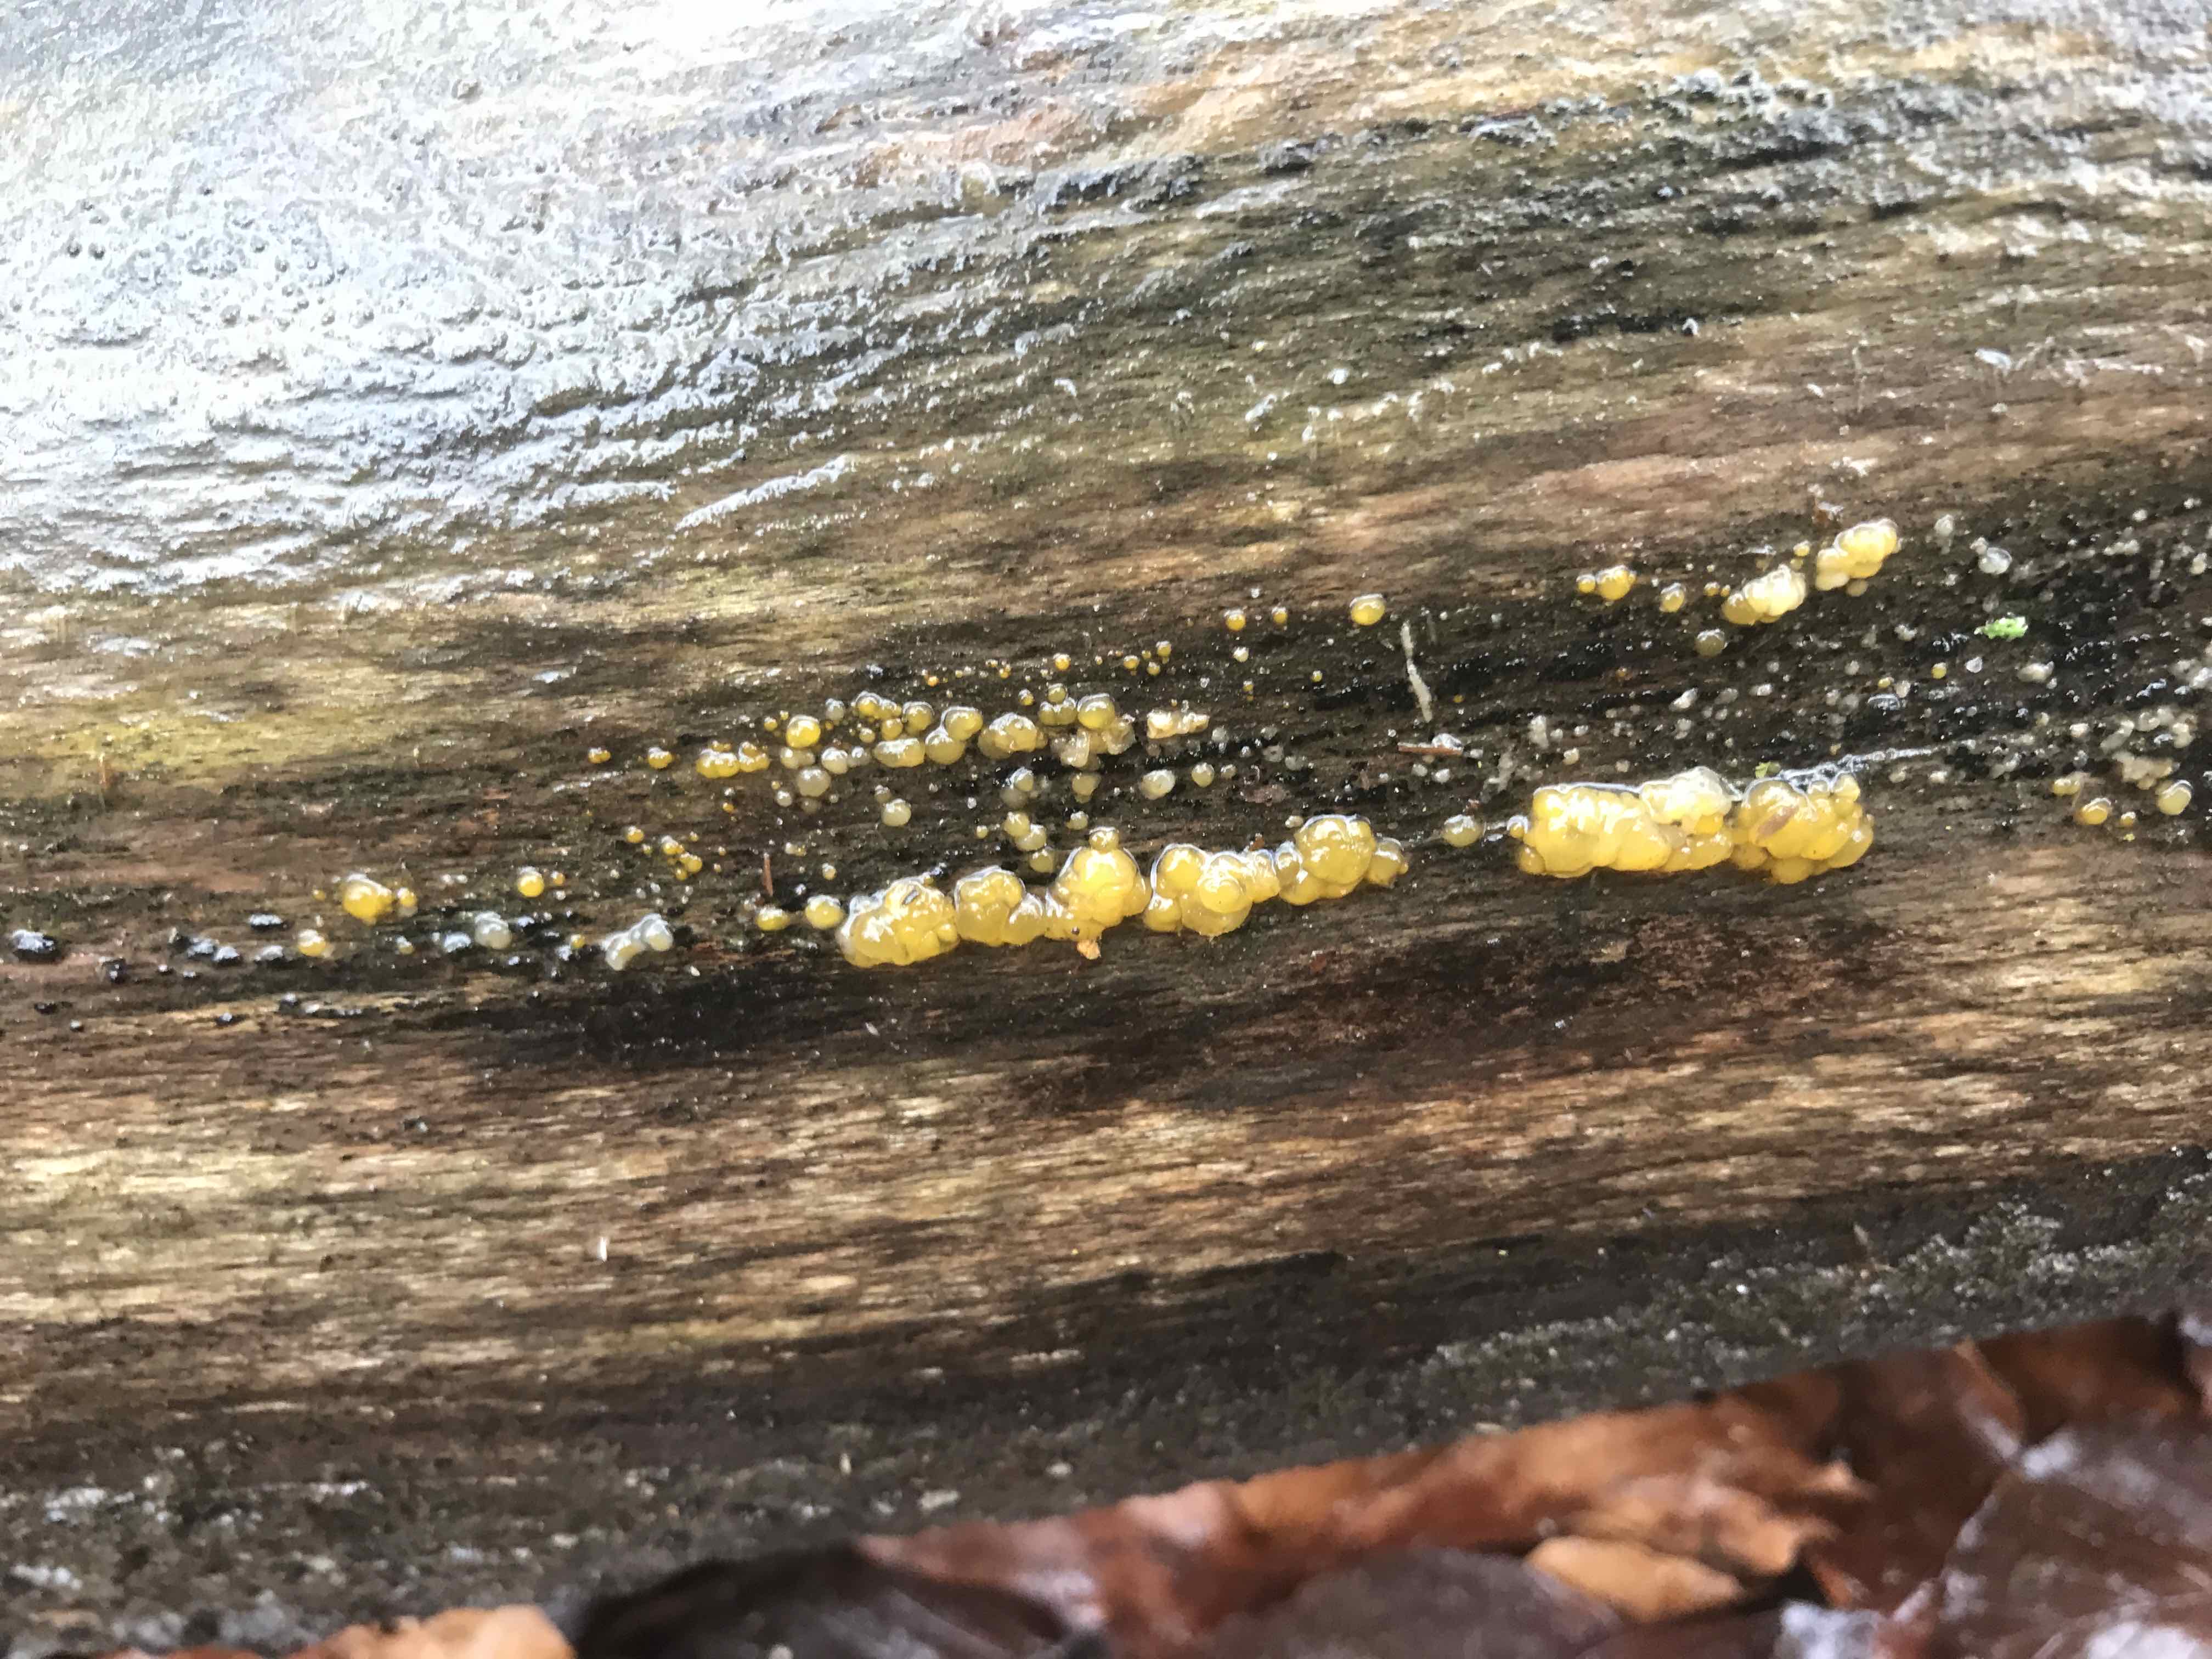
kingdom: Fungi
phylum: Basidiomycota
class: Dacrymycetes
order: Dacrymycetales
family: Dacrymycetaceae
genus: Dacrymyces
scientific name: Dacrymyces
